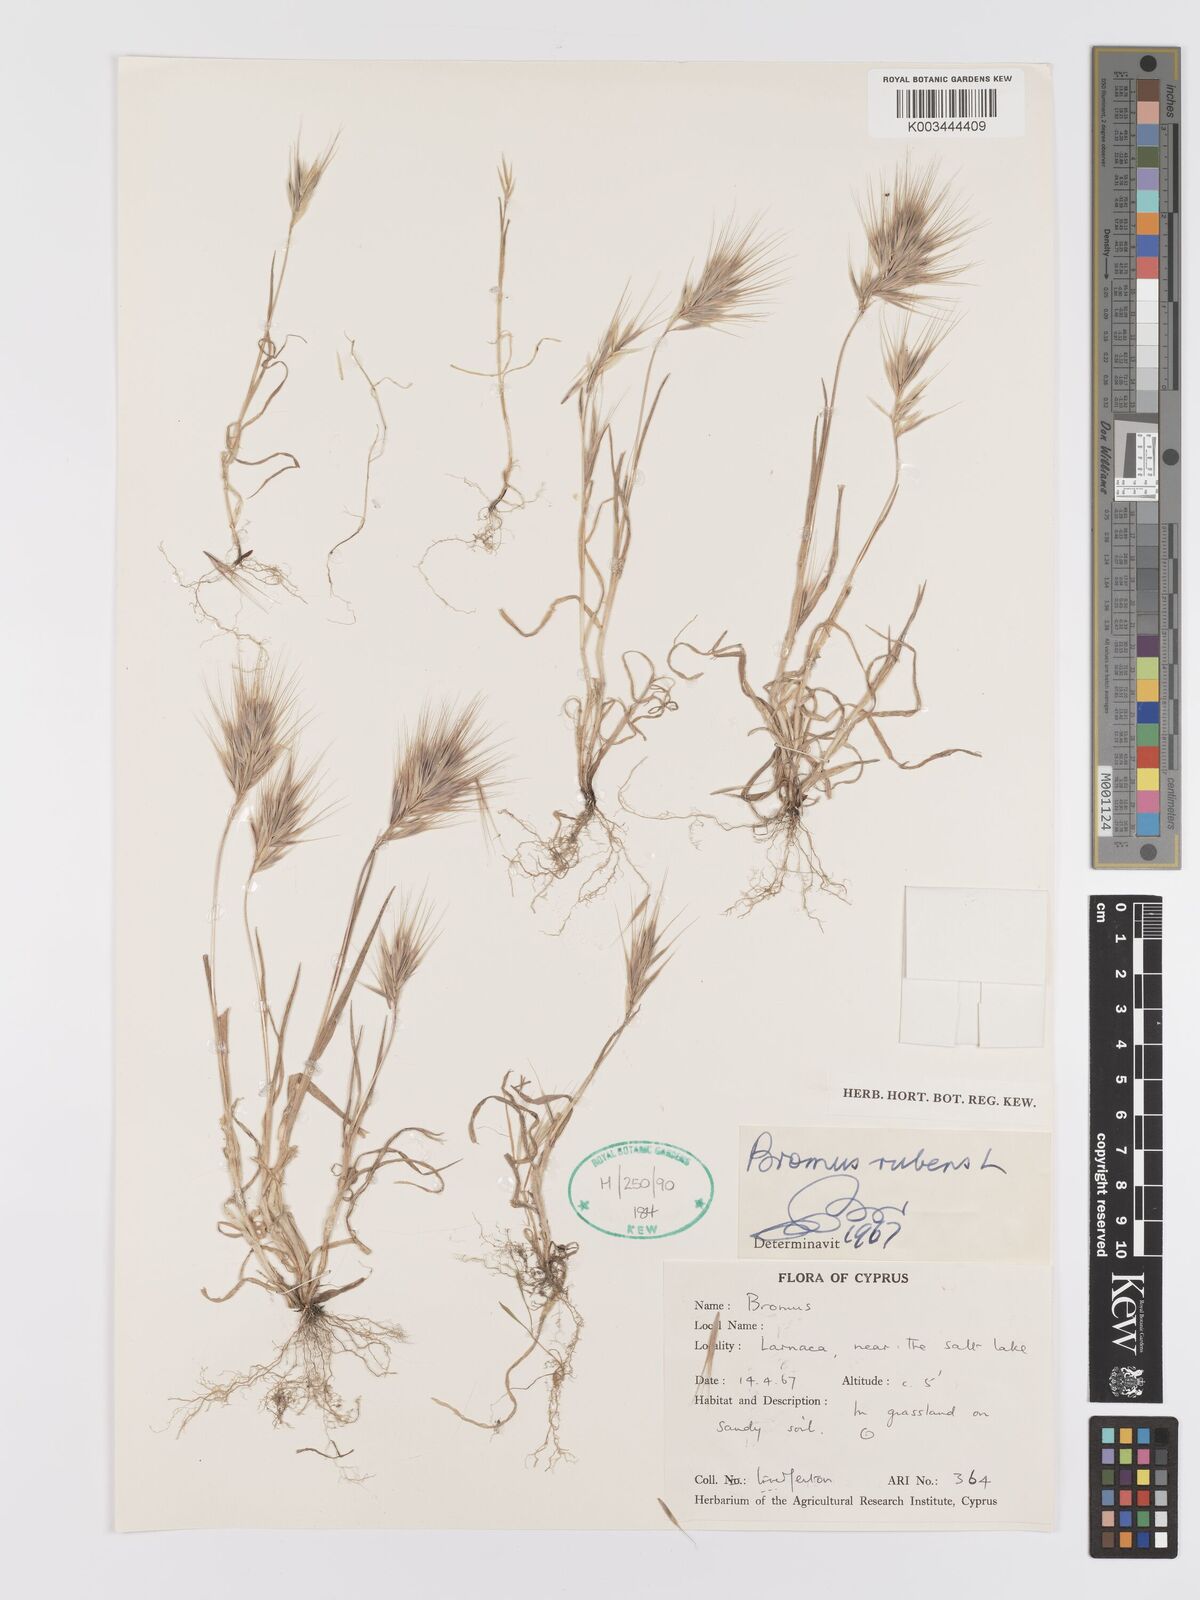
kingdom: Plantae
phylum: Tracheophyta
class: Liliopsida
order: Poales
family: Poaceae
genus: Bromus
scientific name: Bromus rubens
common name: Red brome
